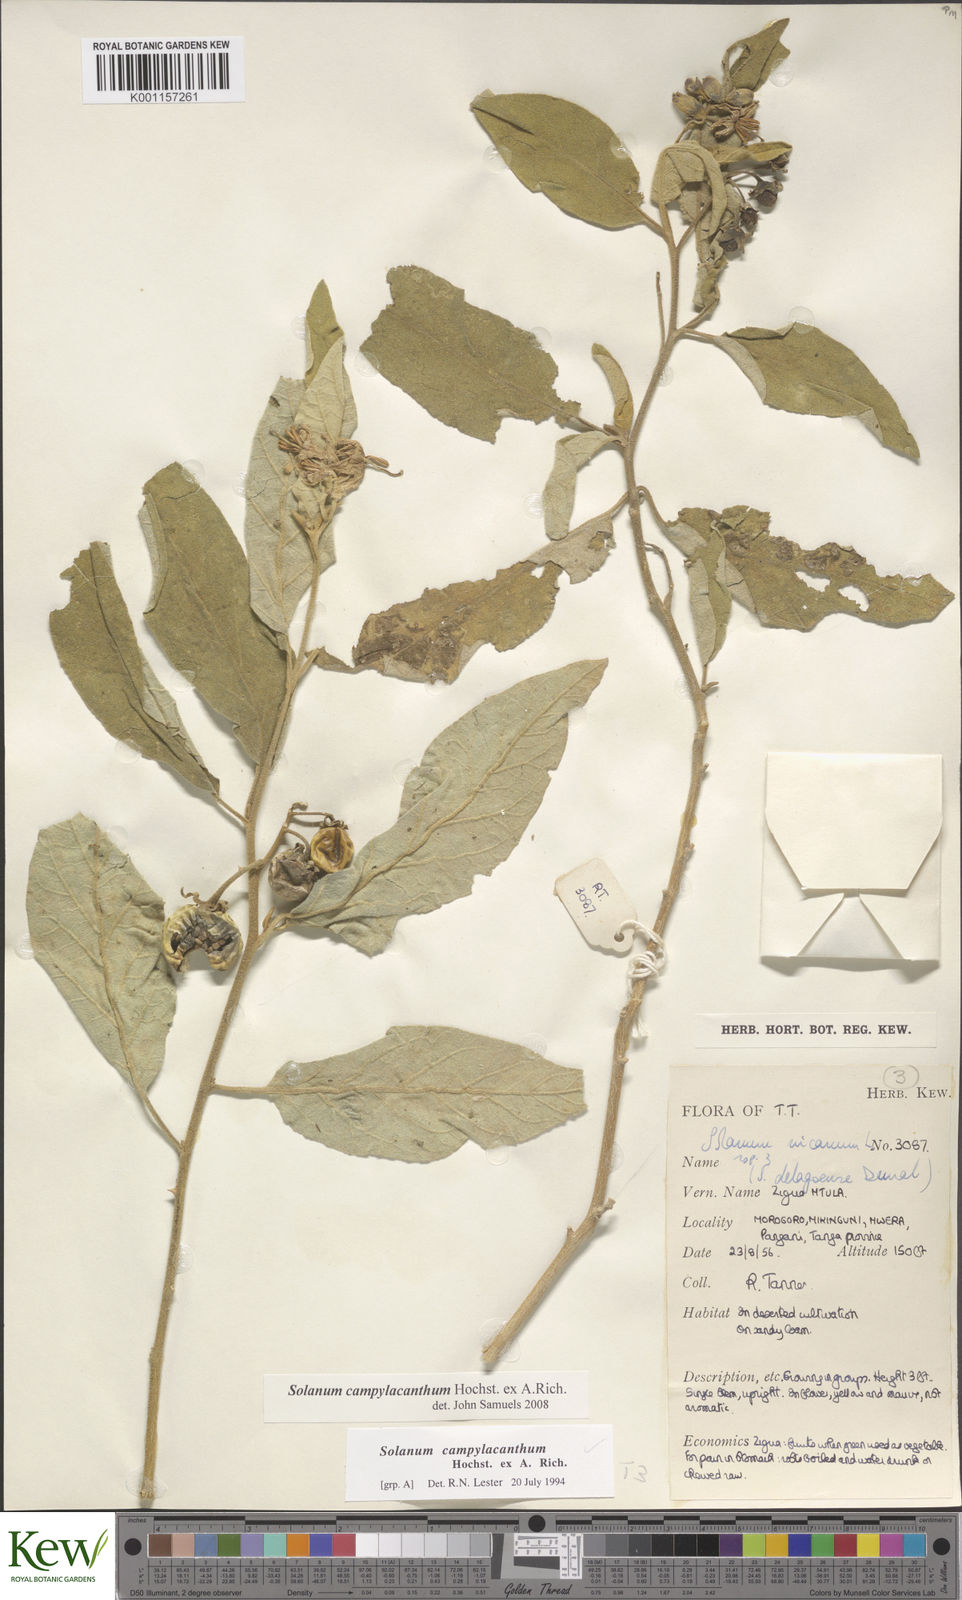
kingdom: Plantae
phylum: Tracheophyta
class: Magnoliopsida
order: Solanales
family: Solanaceae
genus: Solanum
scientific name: Solanum campylacanthum
